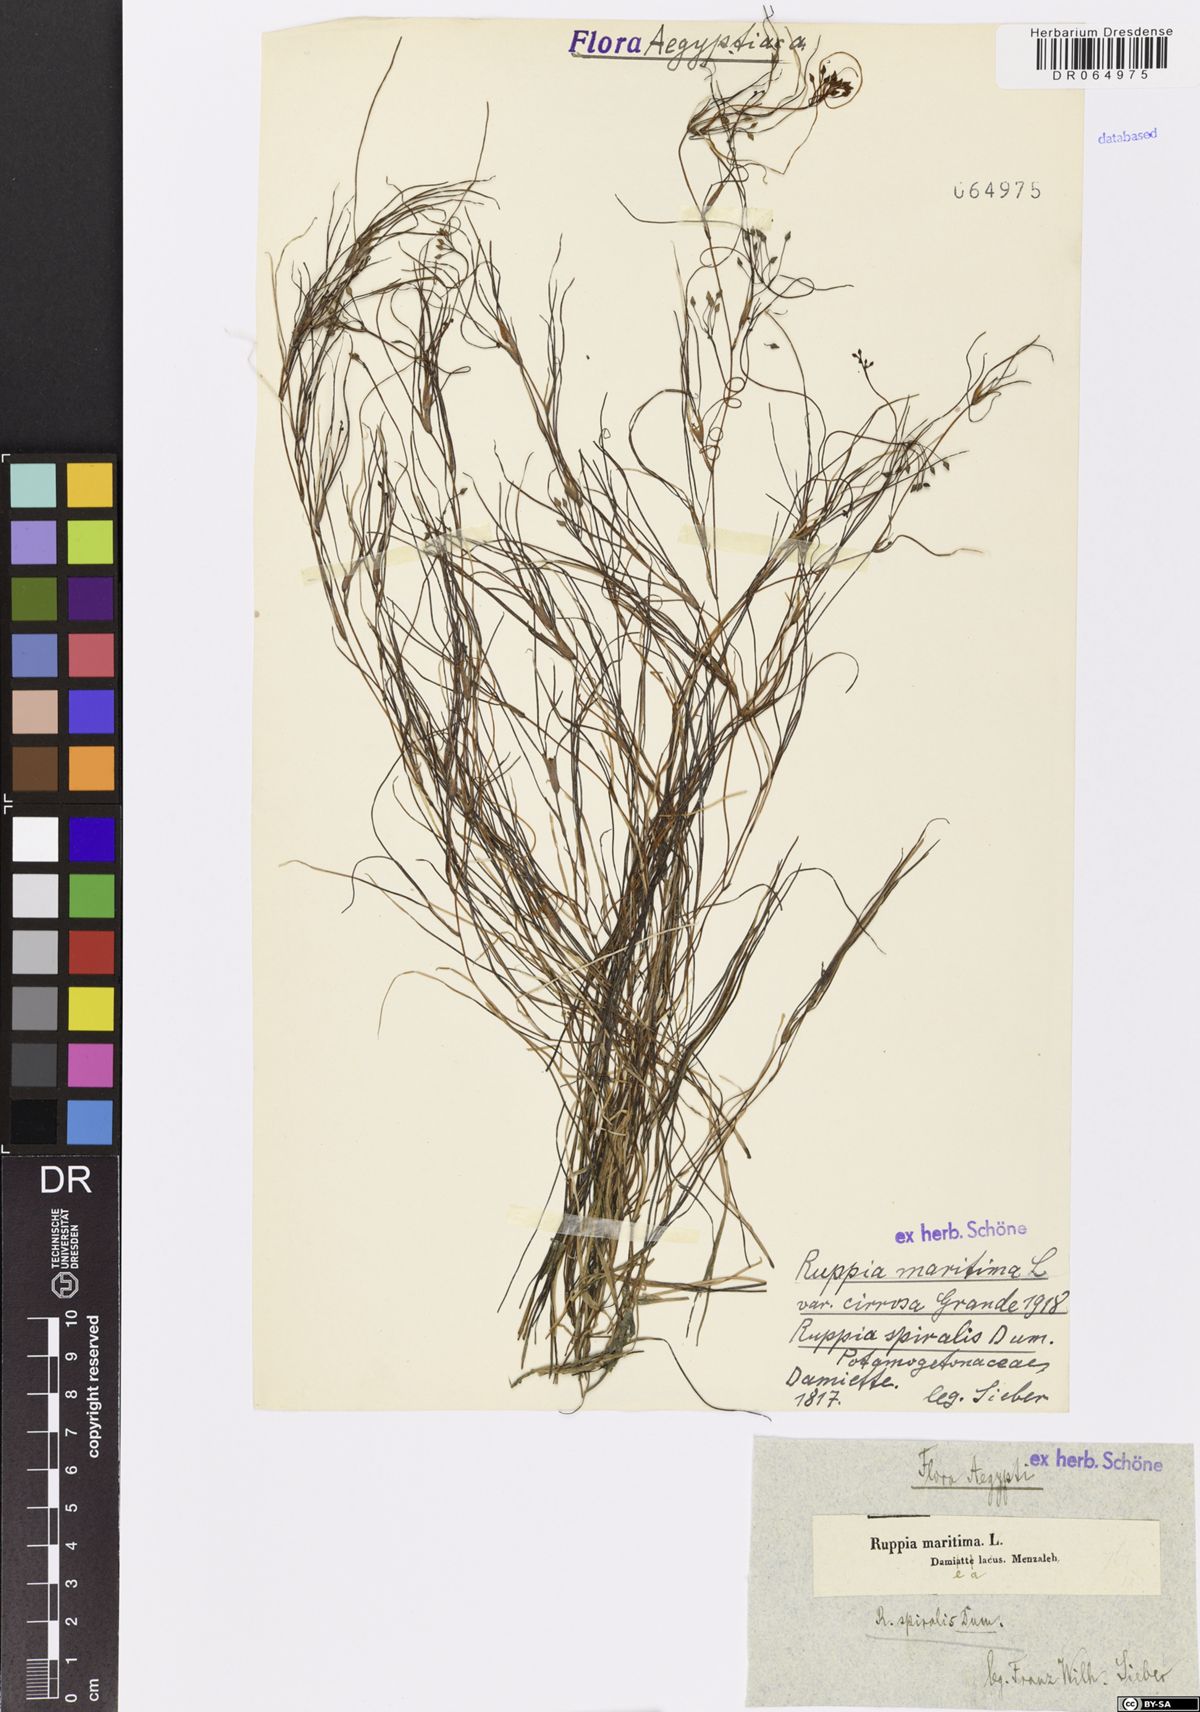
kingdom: Plantae
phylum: Tracheophyta
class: Liliopsida
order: Alismatales
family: Ruppiaceae
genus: Ruppia
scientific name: Ruppia maritima
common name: Beaked tasselweed
